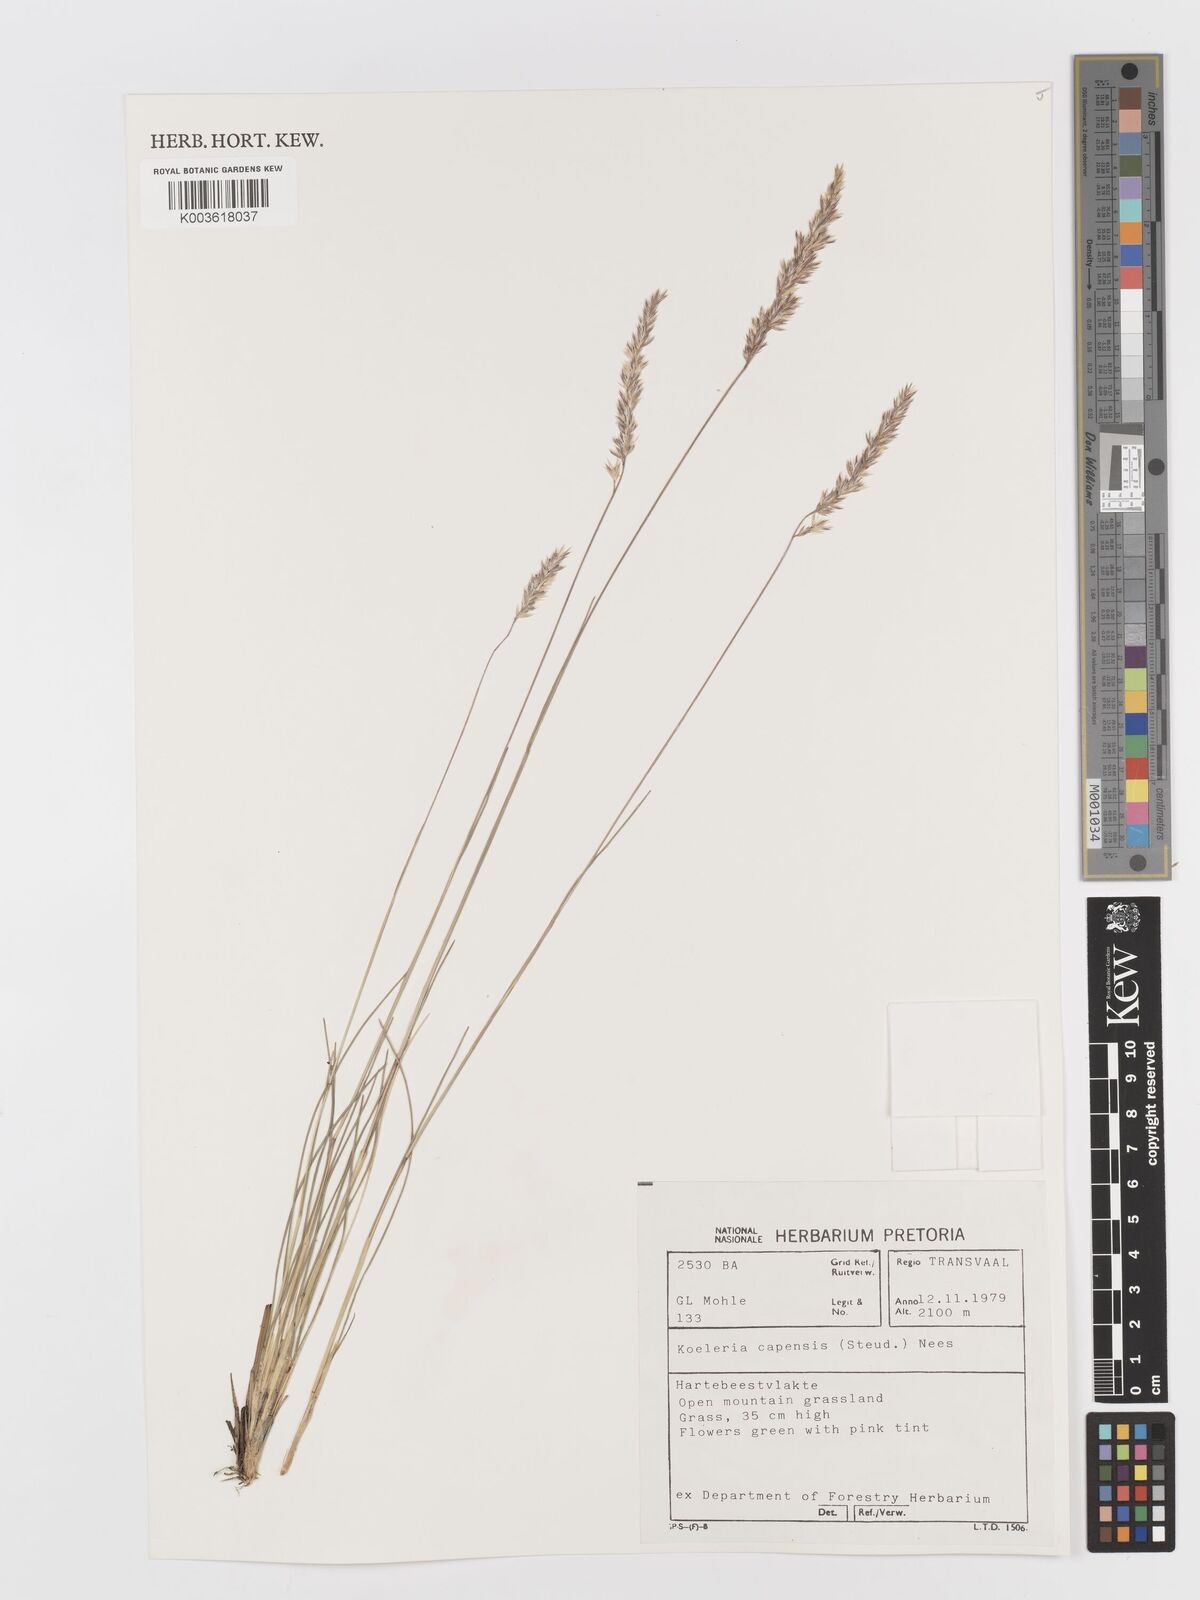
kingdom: Plantae
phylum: Tracheophyta
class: Liliopsida
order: Poales
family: Poaceae
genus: Koeleria
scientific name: Koeleria capensis
